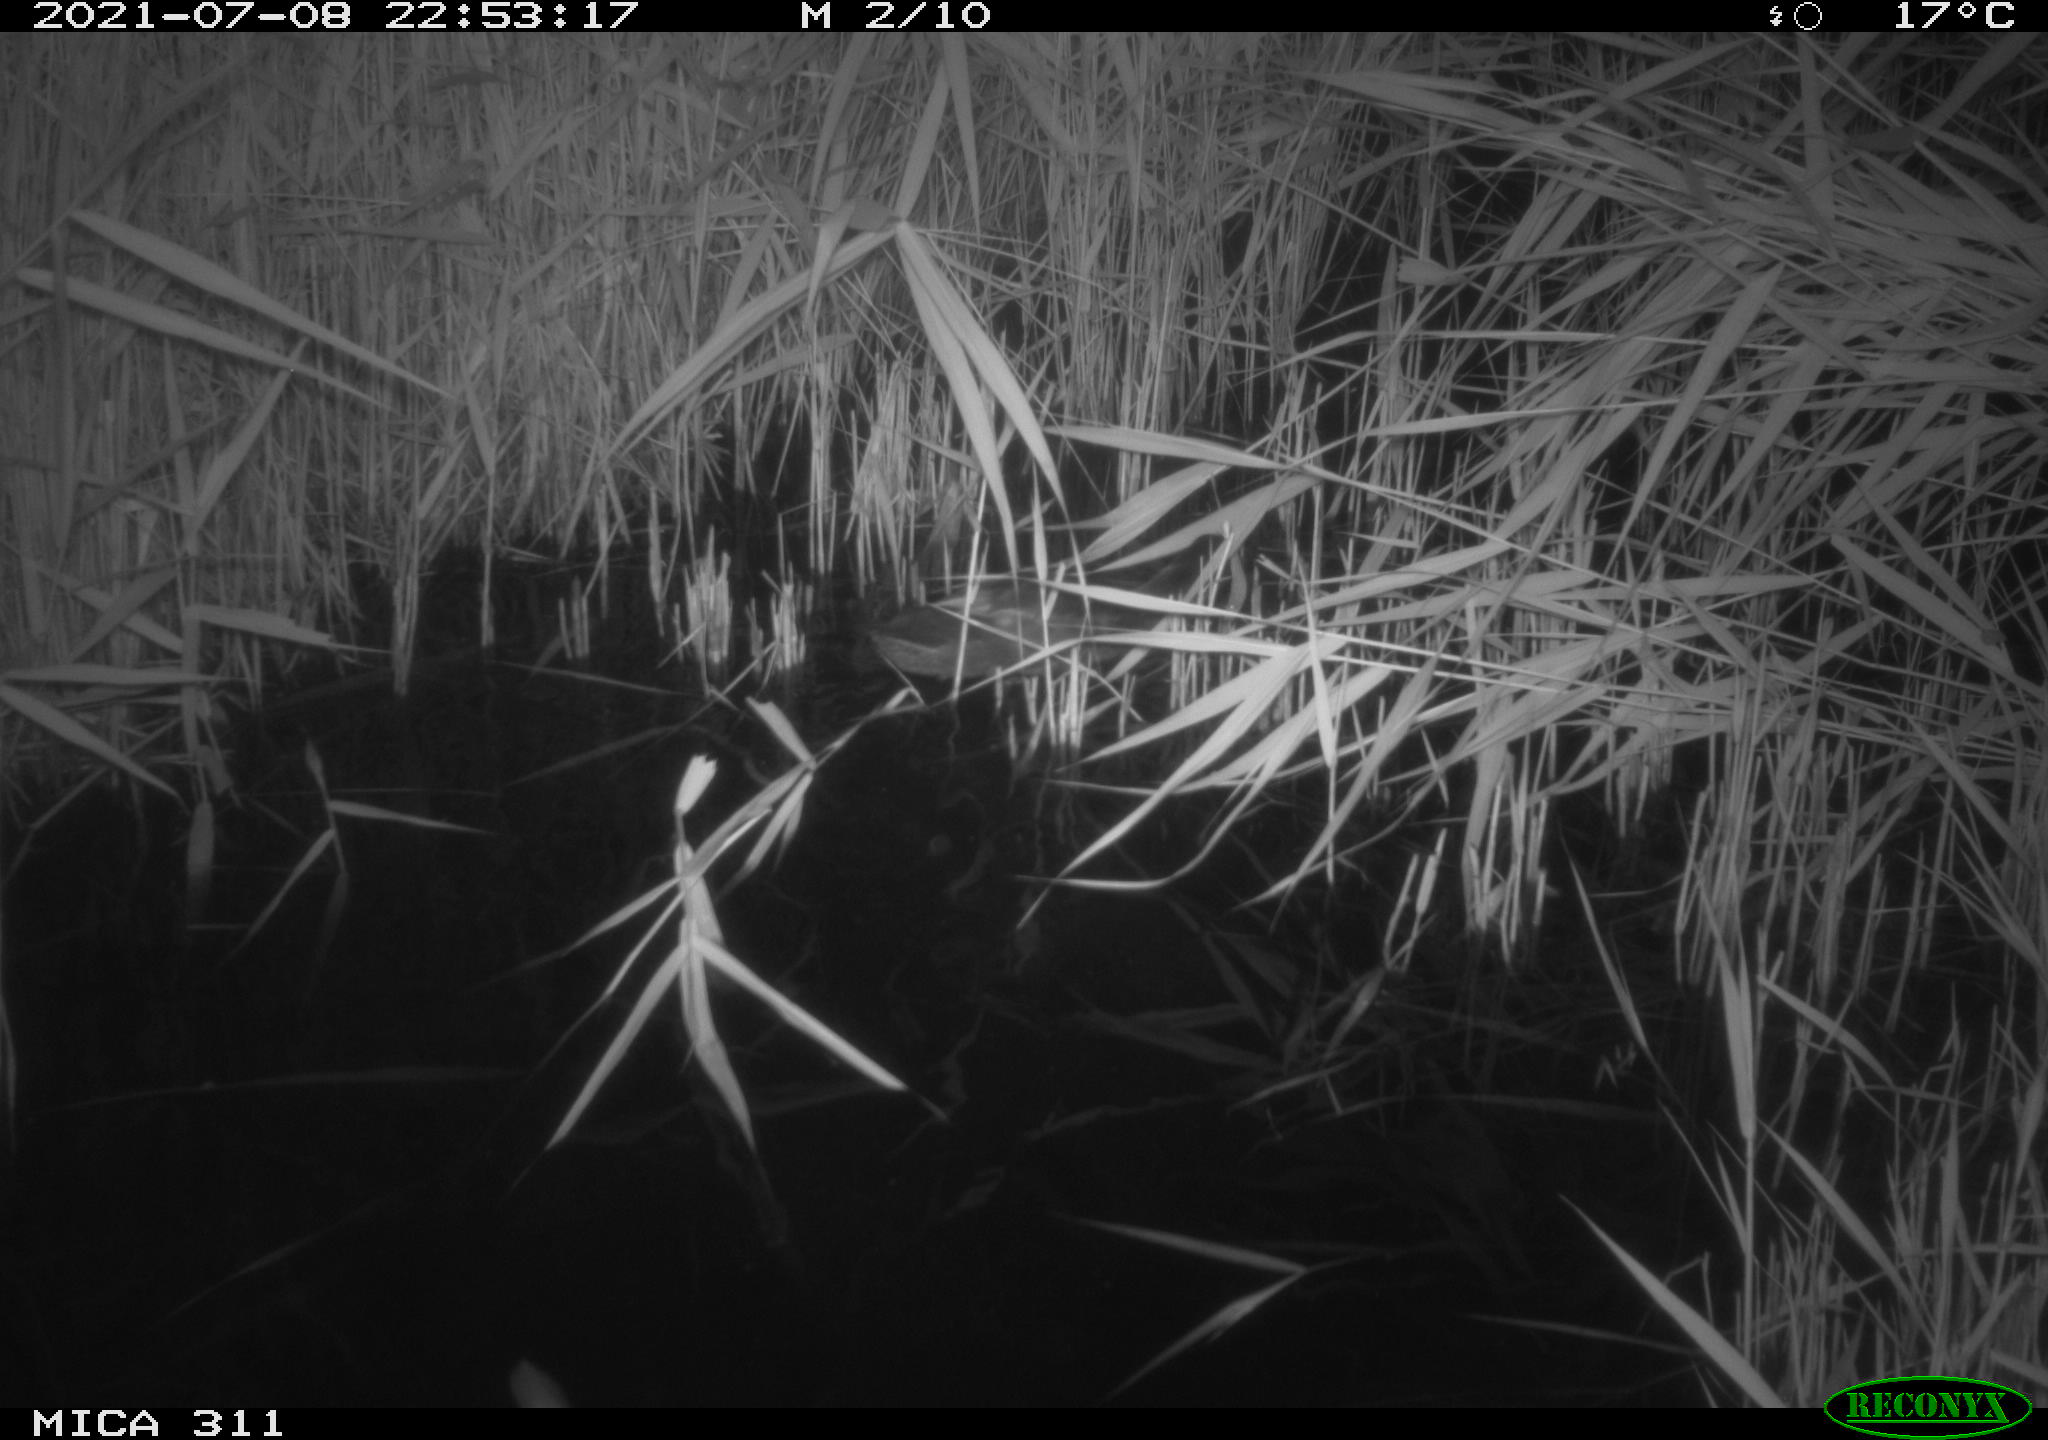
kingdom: Animalia
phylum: Chordata
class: Aves
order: Anseriformes
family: Anatidae
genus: Anas
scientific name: Anas platyrhynchos
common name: Mallard
